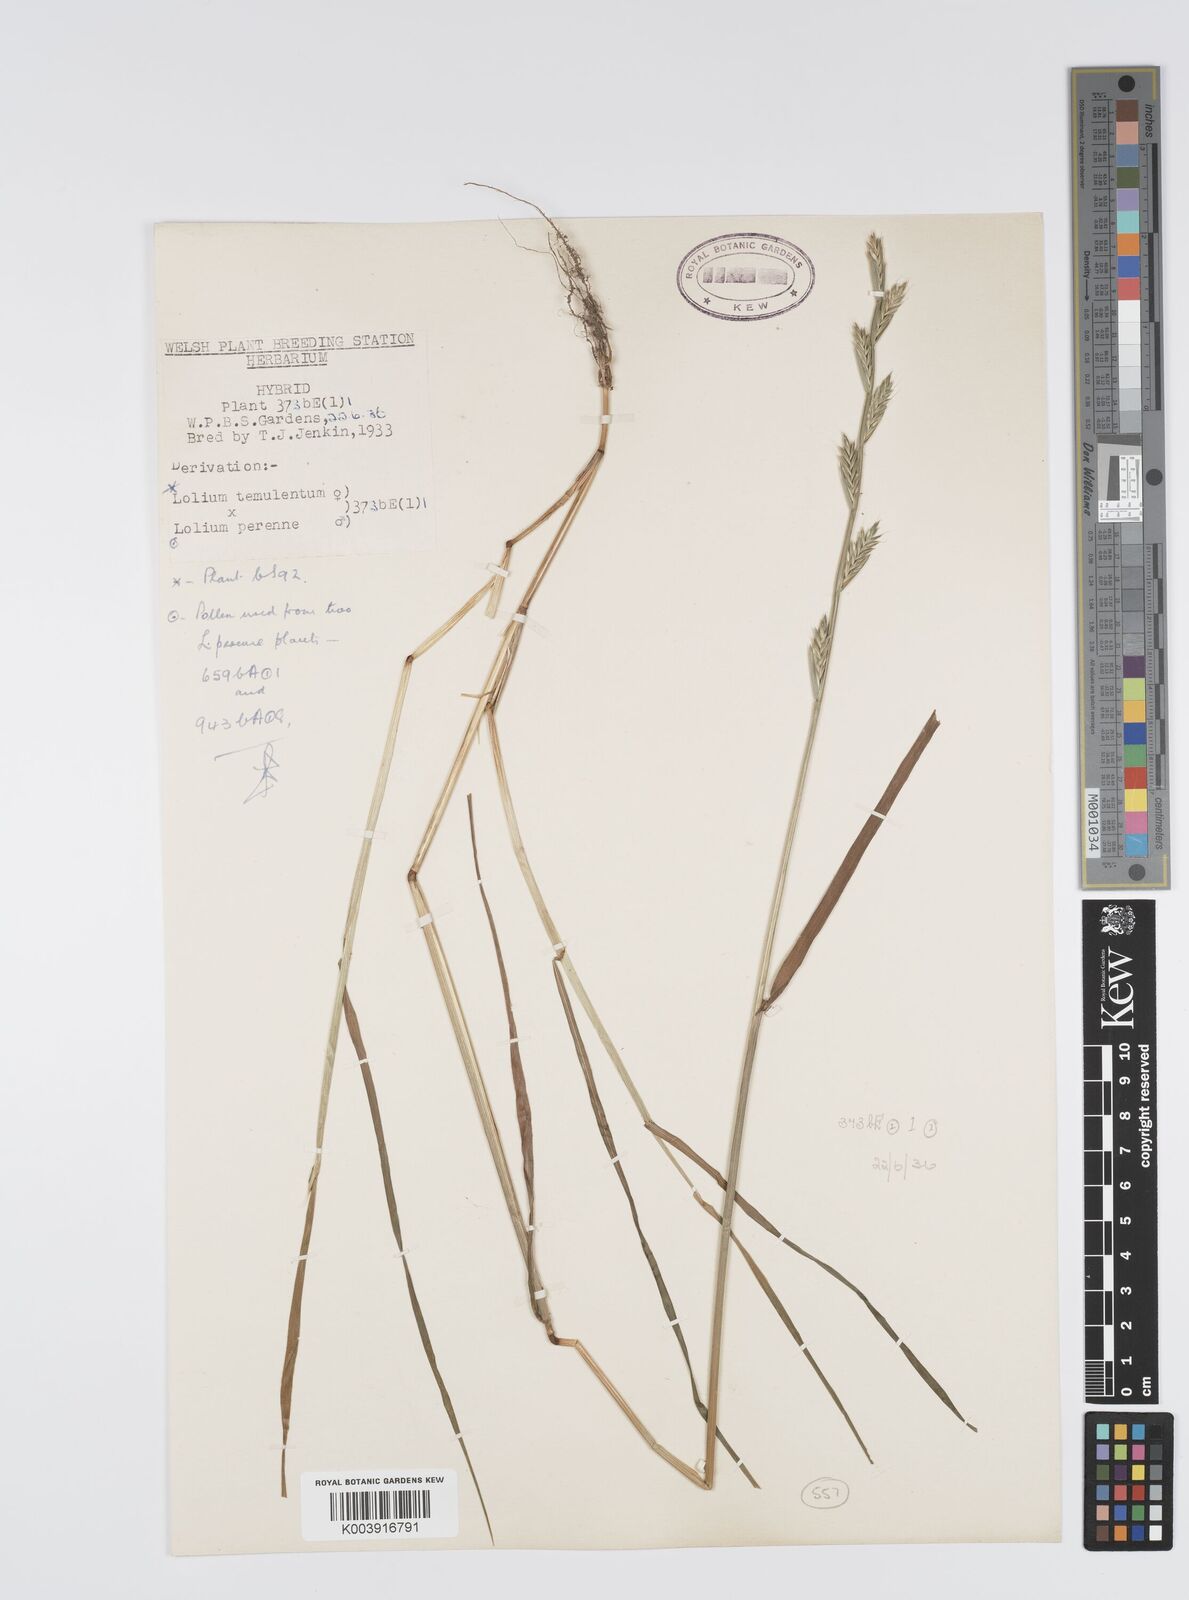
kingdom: Plantae
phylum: Tracheophyta
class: Liliopsida
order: Poales
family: Poaceae
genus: Lolium
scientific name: Lolium perenne
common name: Perennial ryegrass
